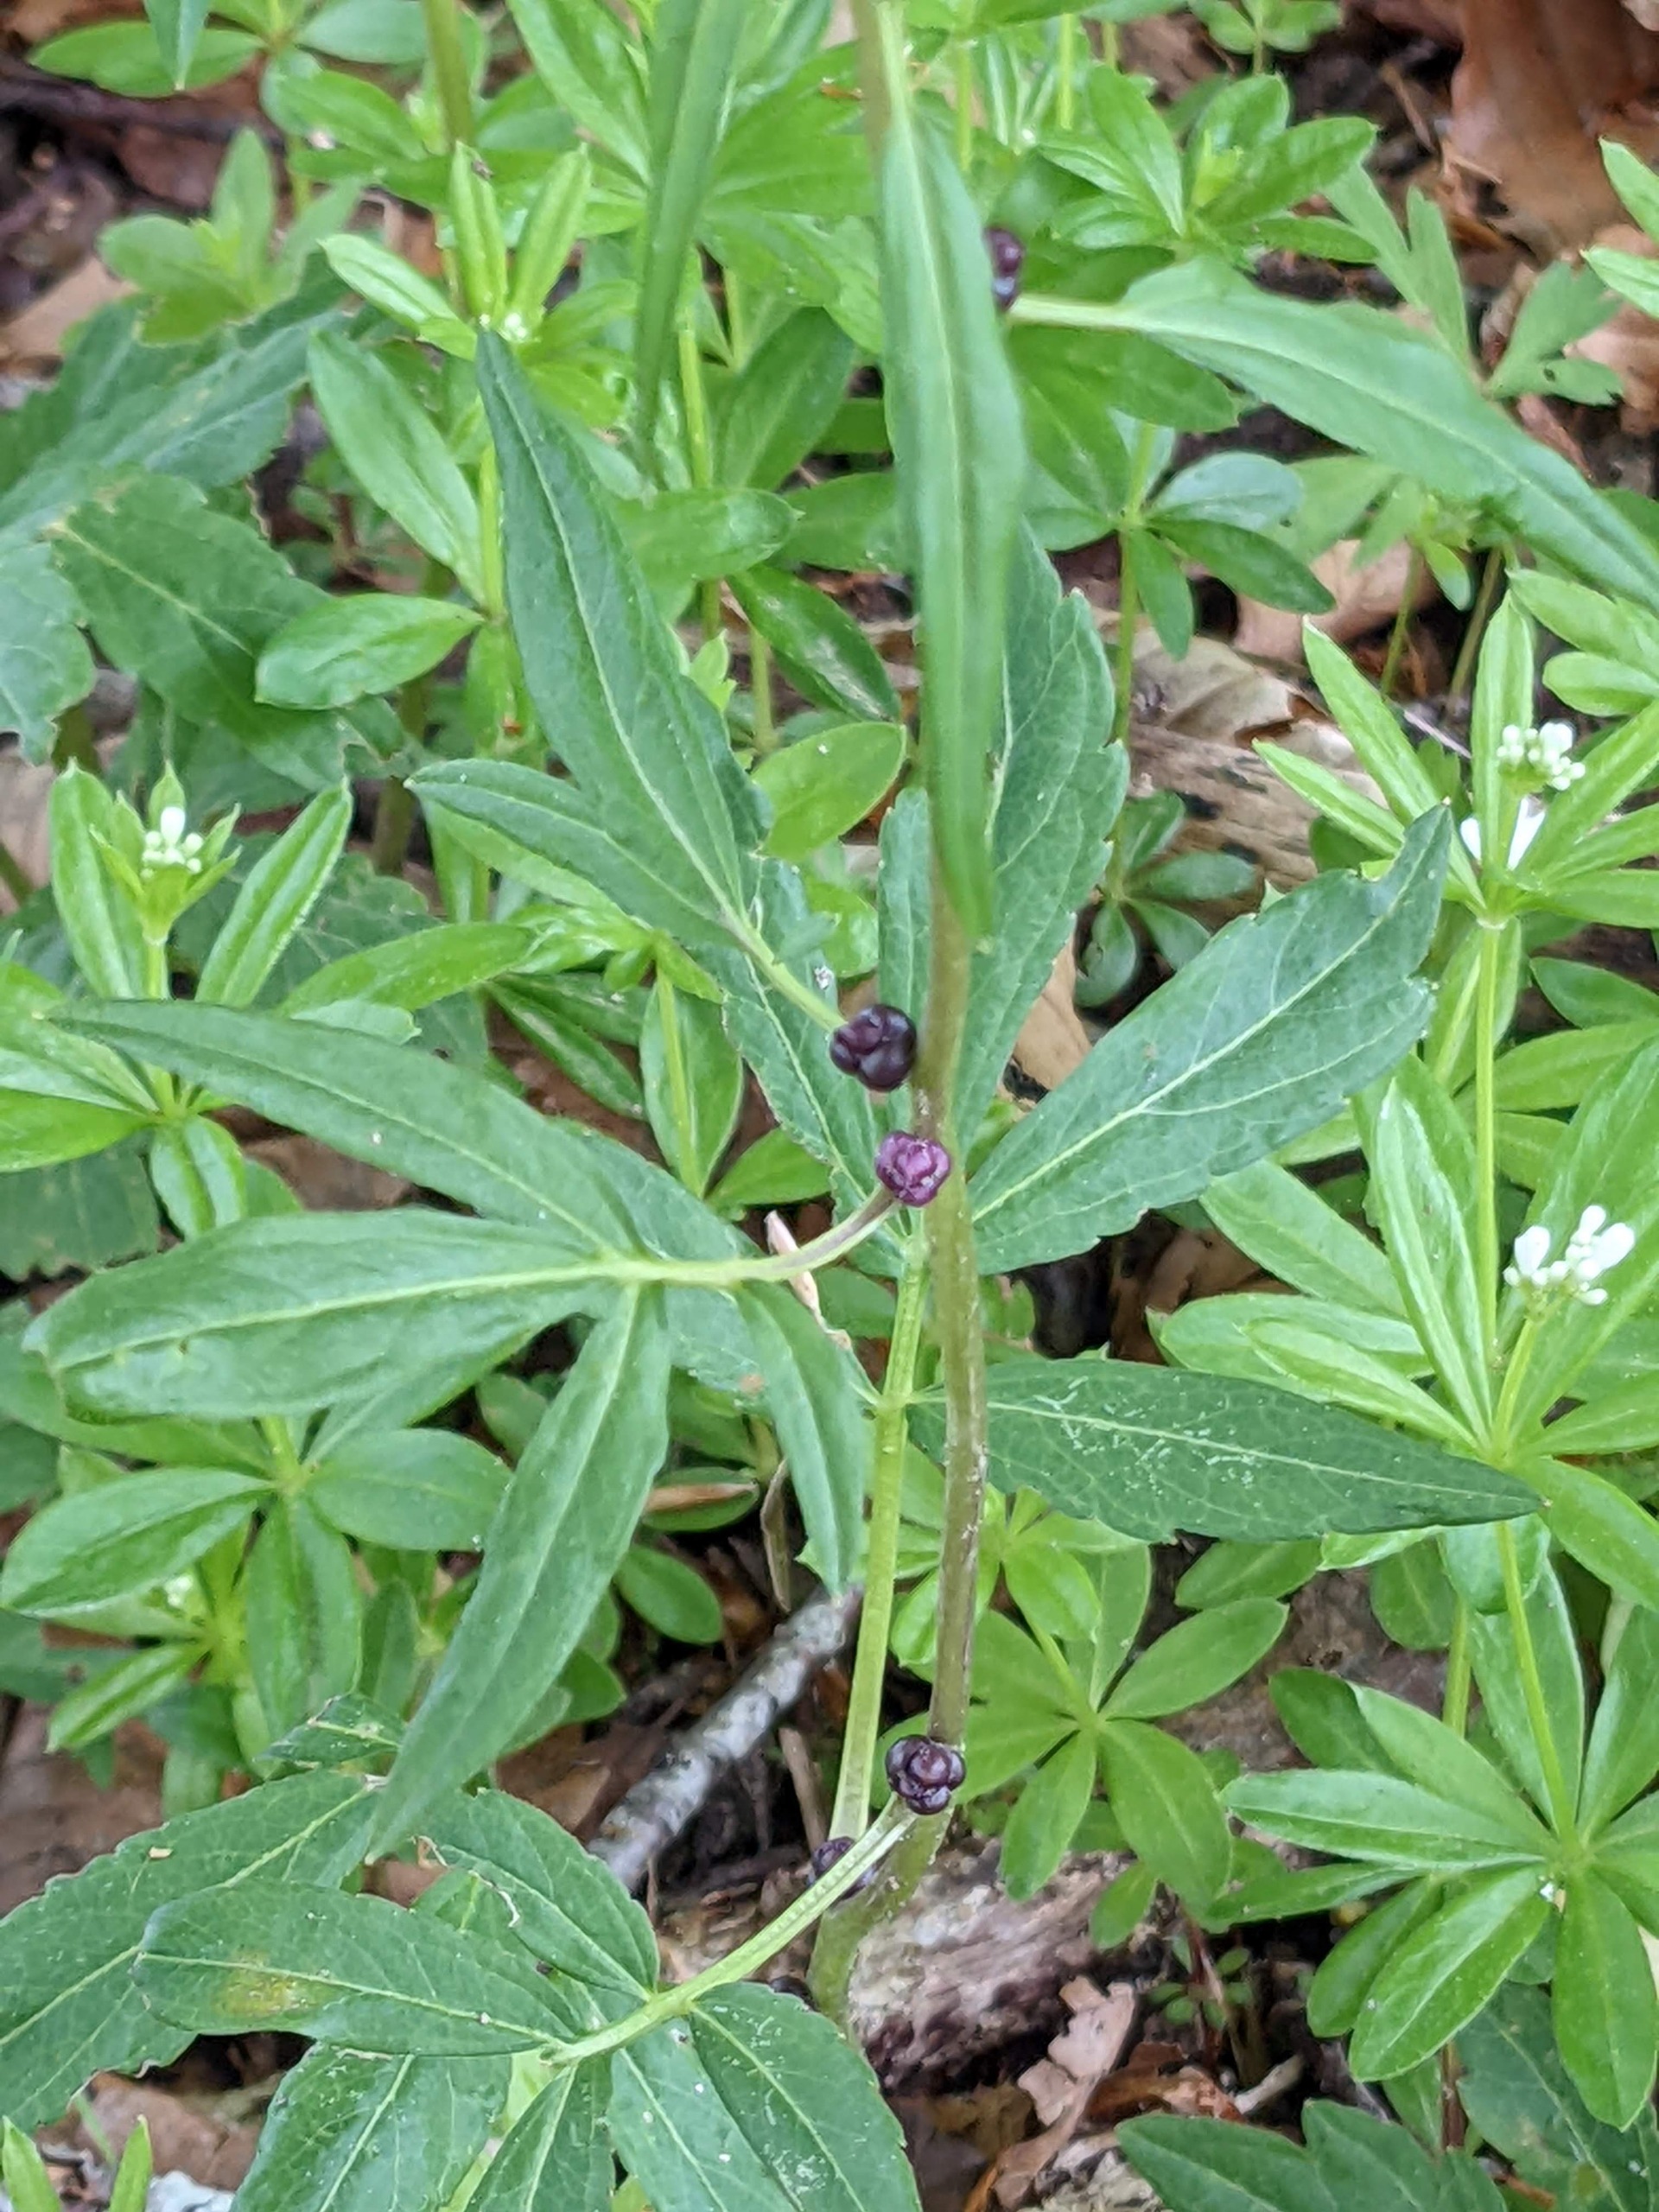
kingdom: Plantae
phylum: Tracheophyta
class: Magnoliopsida
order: Brassicales
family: Brassicaceae
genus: Cardamine
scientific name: Cardamine bulbifera
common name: Tandrod
